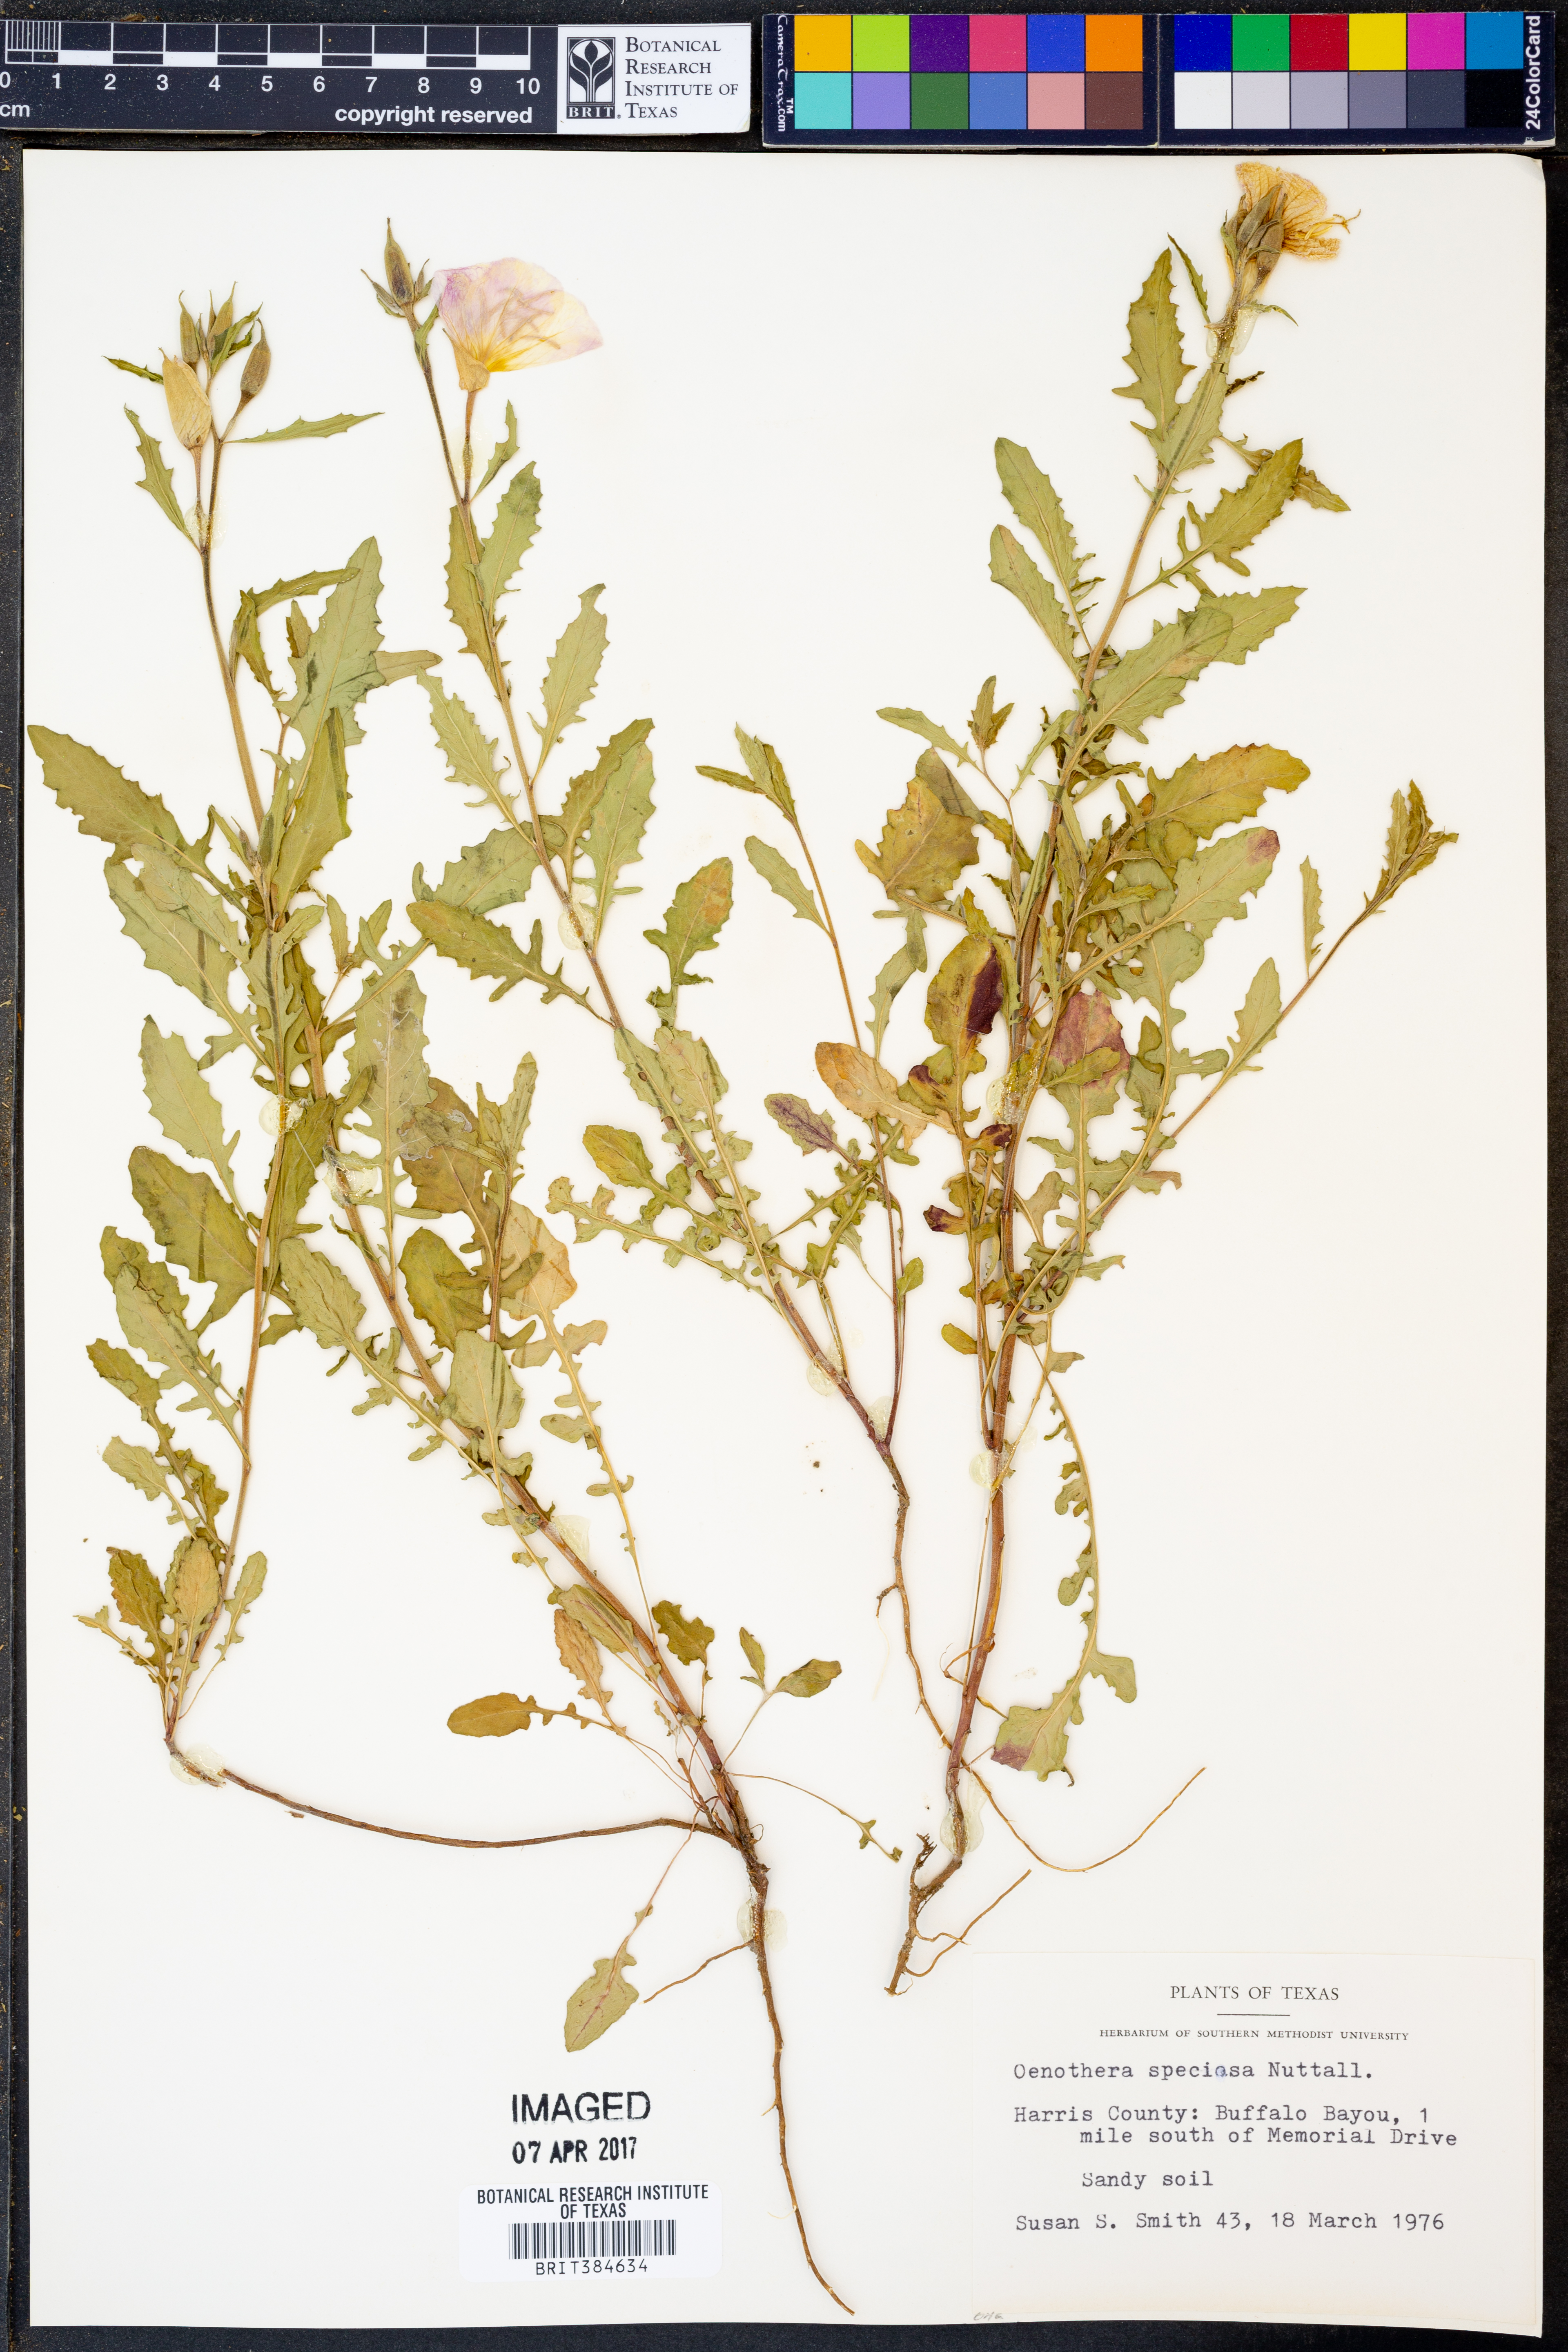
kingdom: Plantae
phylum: Tracheophyta
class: Magnoliopsida
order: Myrtales
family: Onagraceae
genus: Oenothera
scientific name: Oenothera speciosa
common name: White evening-primrose
